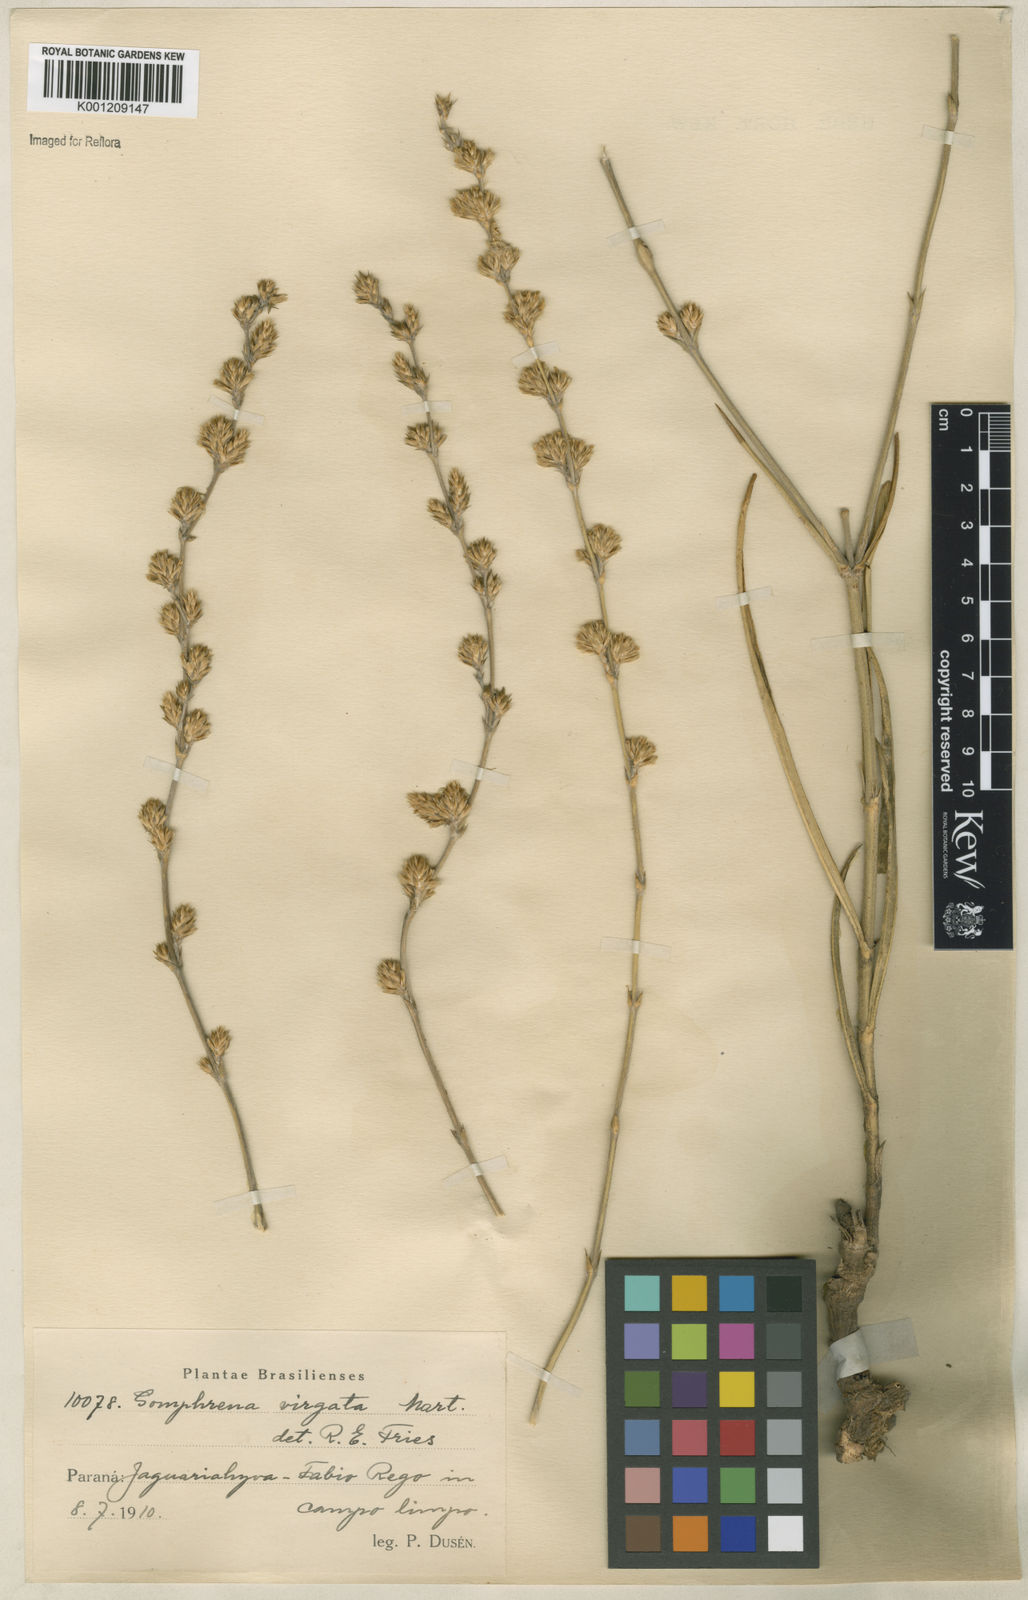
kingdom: Plantae
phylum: Tracheophyta
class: Magnoliopsida
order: Caryophyllales
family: Amaranthaceae
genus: Gomphrena
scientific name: Gomphrena virgata
